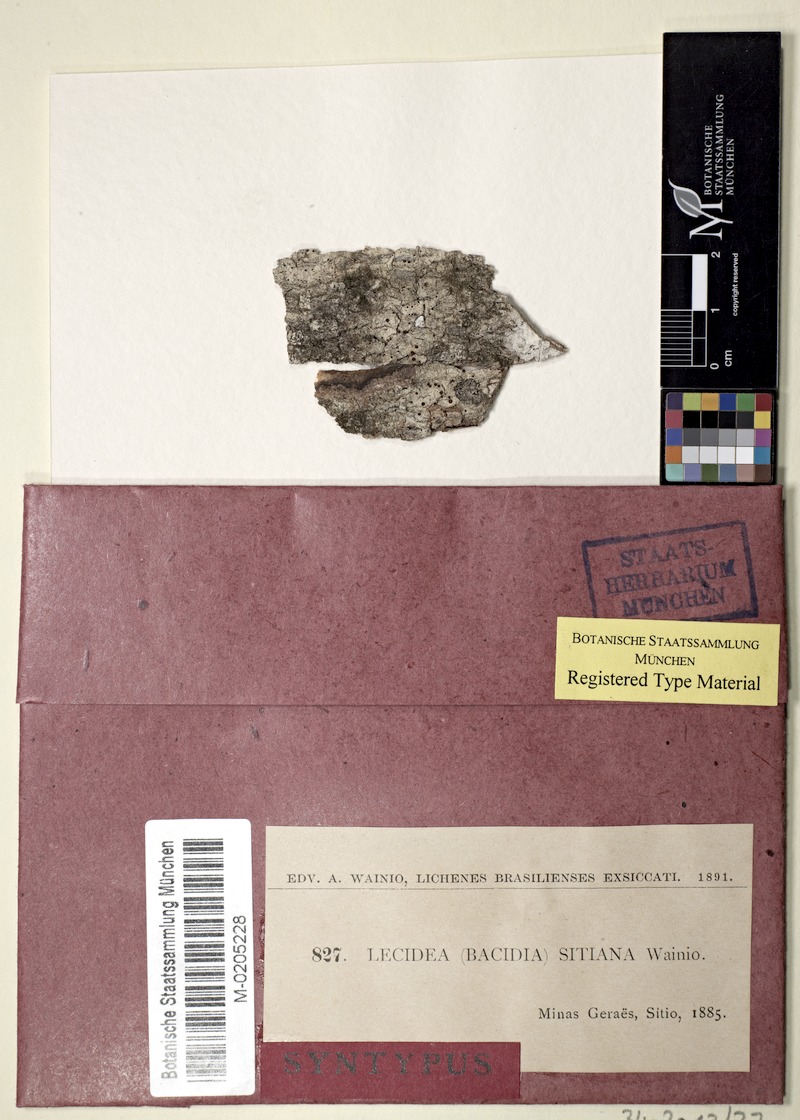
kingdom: Fungi
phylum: Ascomycota
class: Lecanoromycetes
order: Lecanorales
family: Ramalinaceae
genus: Bacidia
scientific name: Bacidia
